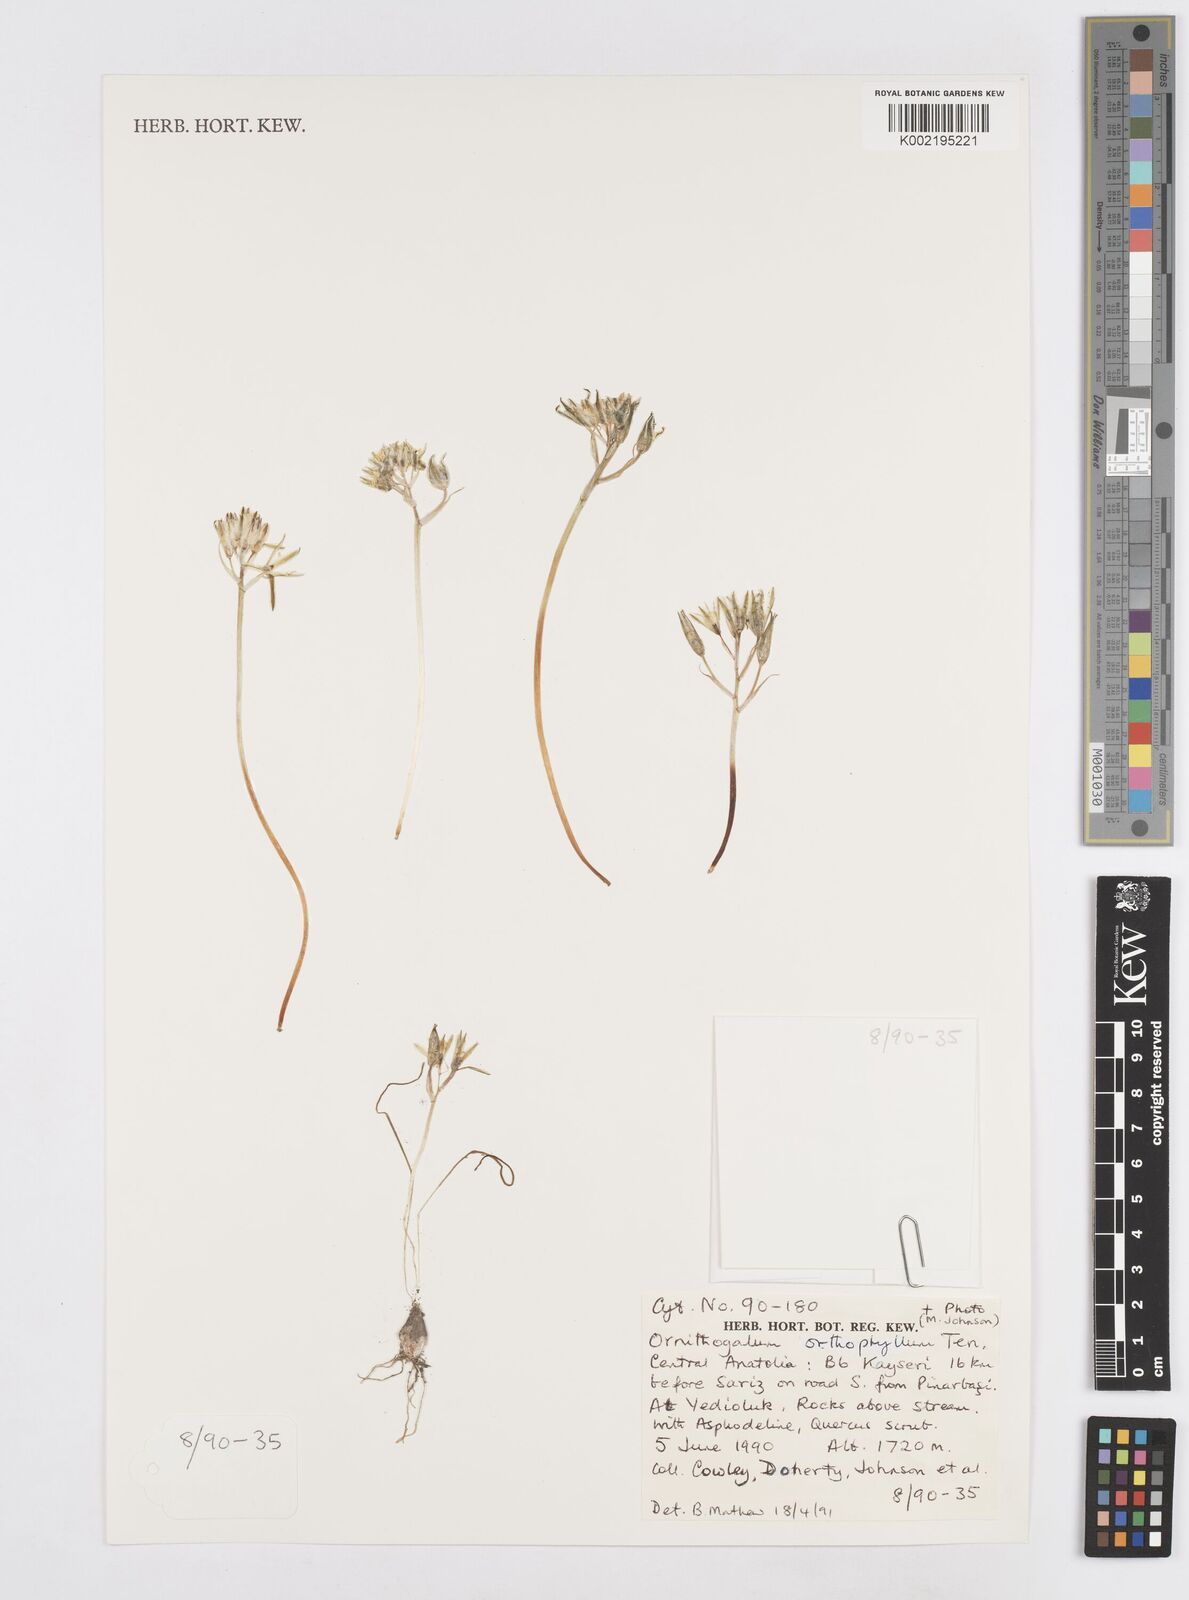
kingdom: Plantae
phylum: Tracheophyta
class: Liliopsida
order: Asparagales
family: Asparagaceae
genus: Ornithogalum
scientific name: Ornithogalum orthophyllum
